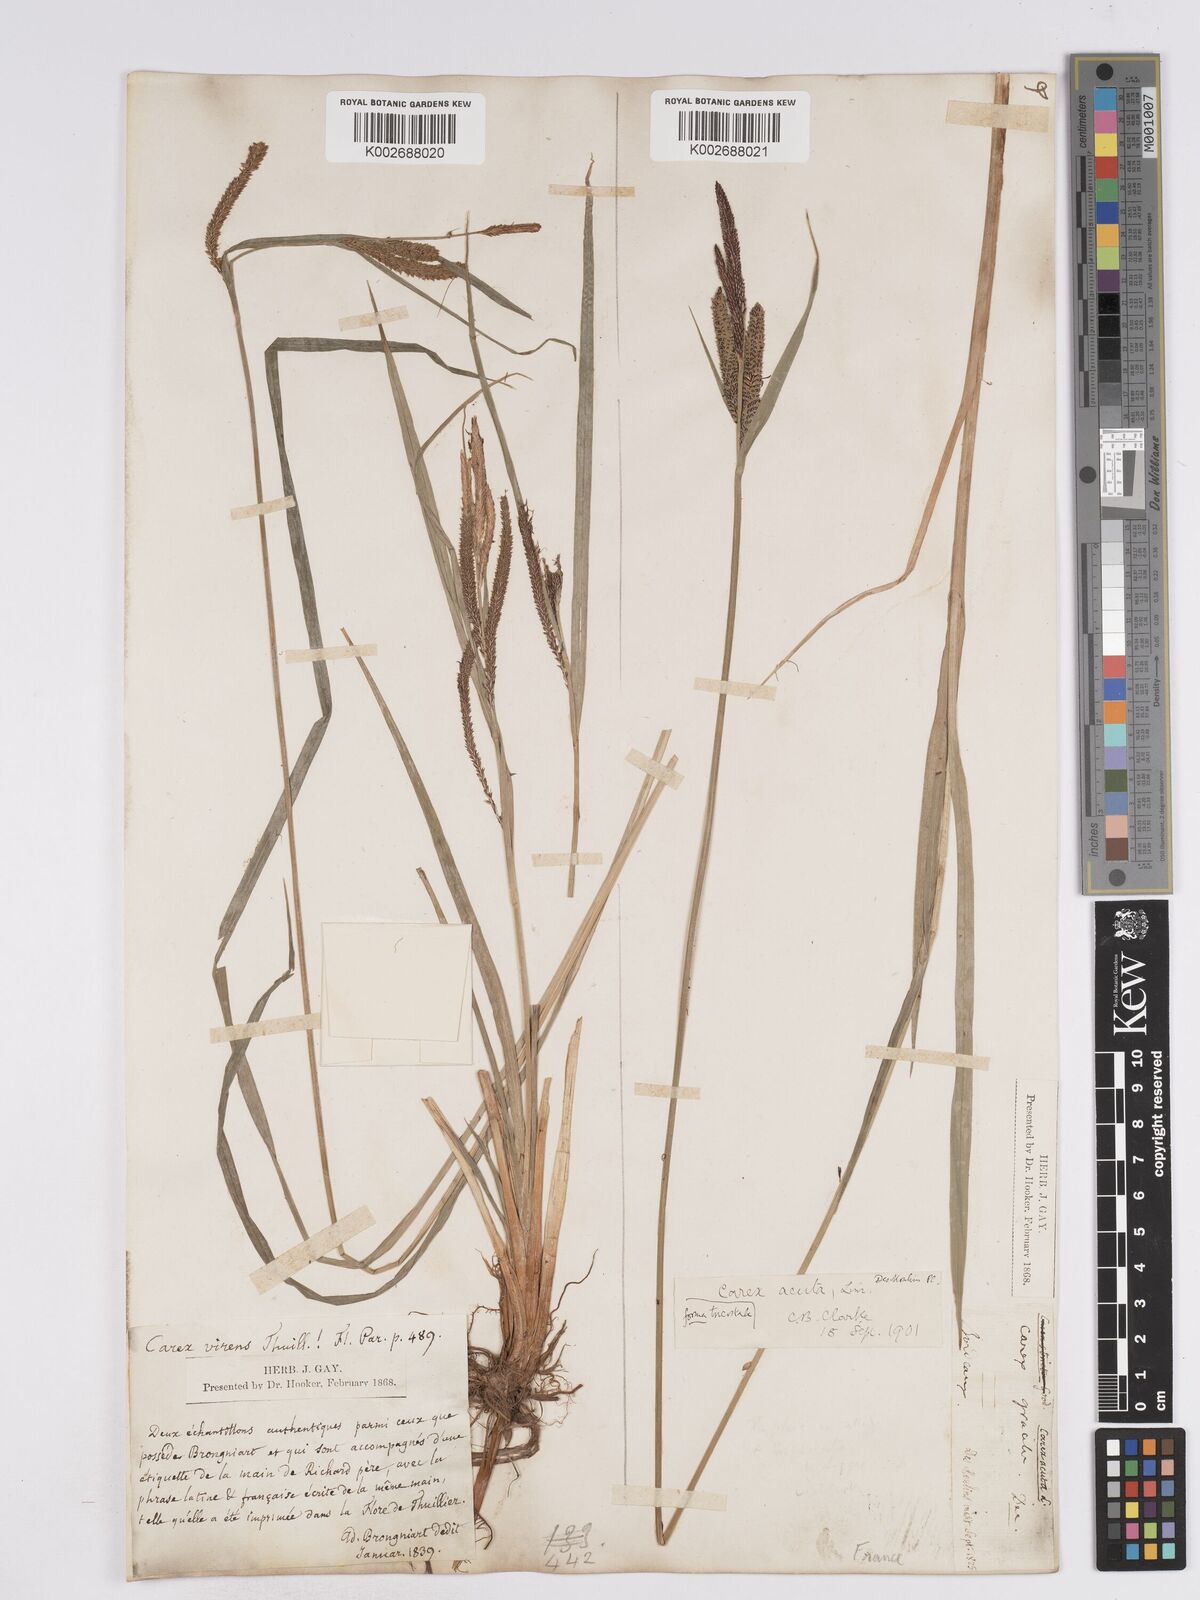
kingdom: Plantae
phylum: Tracheophyta
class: Liliopsida
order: Poales
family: Cyperaceae
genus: Carex
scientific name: Carex acuta
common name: Slender tufted-sedge
